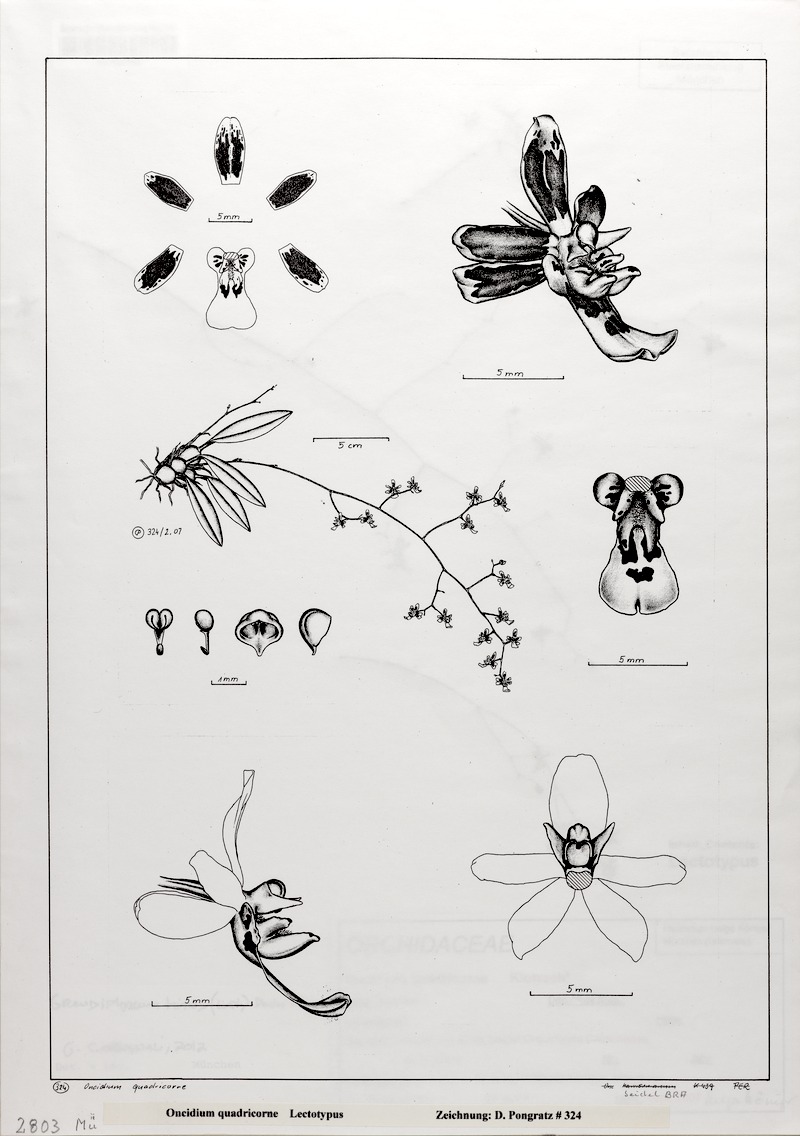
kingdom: Plantae
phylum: Tracheophyta
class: Liliopsida
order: Asparagales
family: Orchidaceae
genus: Grandiphyllum
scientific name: Grandiphyllum hians
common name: Mule-ear orchid
